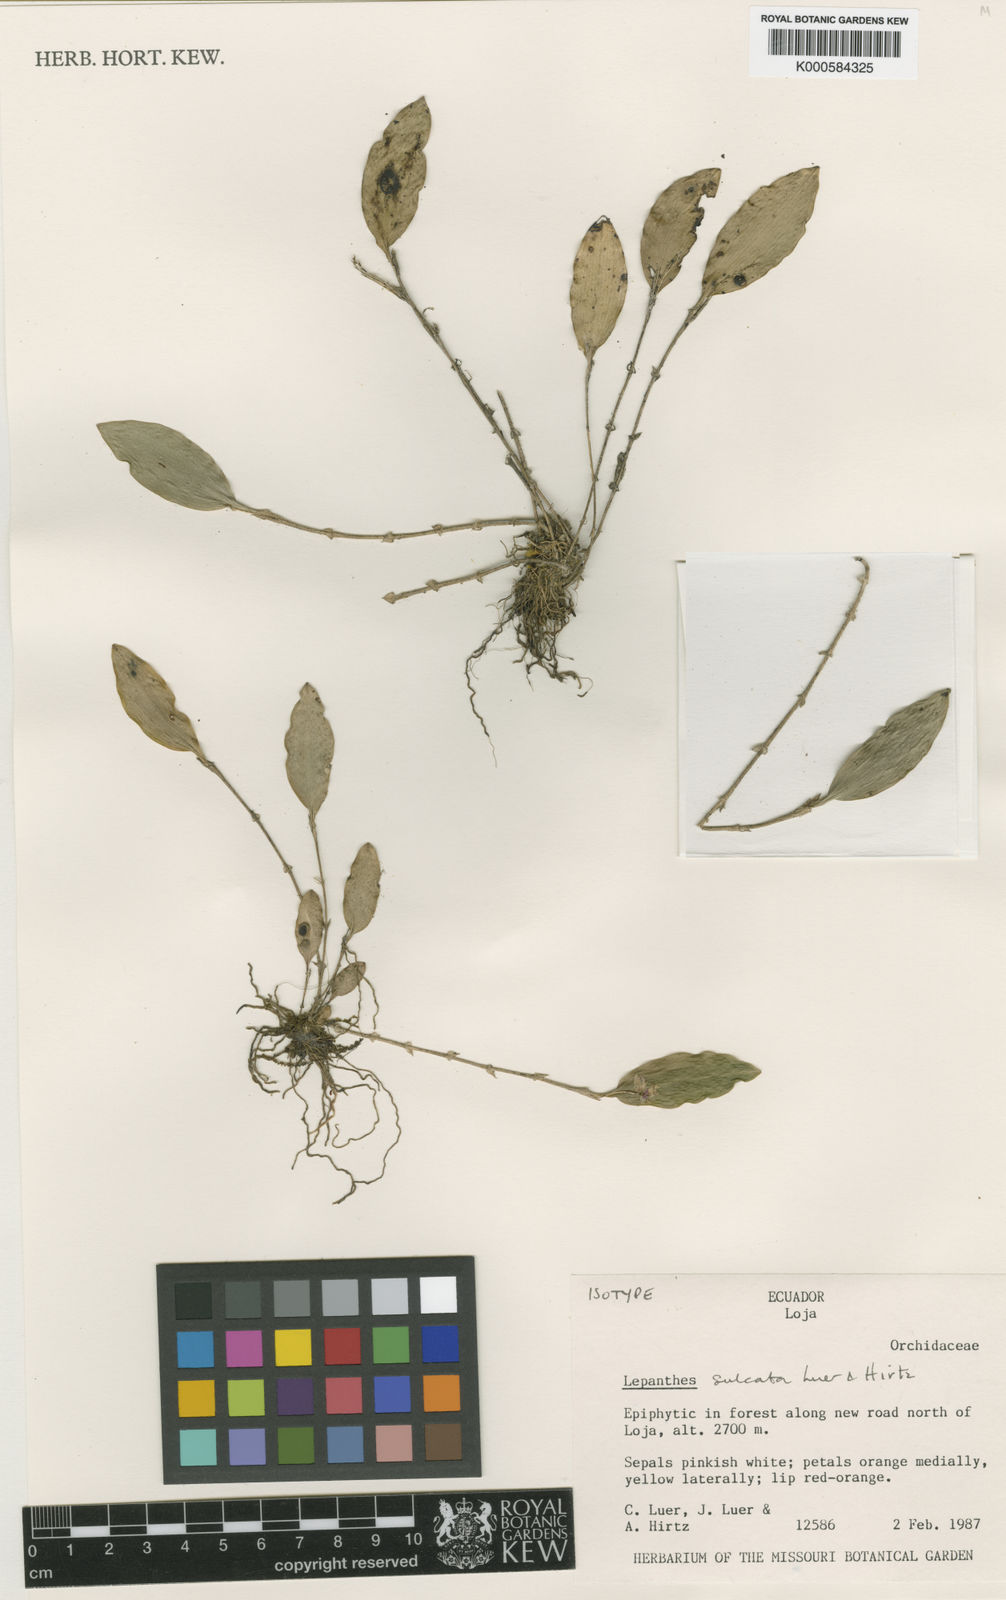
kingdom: Plantae
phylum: Tracheophyta
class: Liliopsida
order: Asparagales
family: Orchidaceae
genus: Lepanthes
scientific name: Lepanthes sulcata
